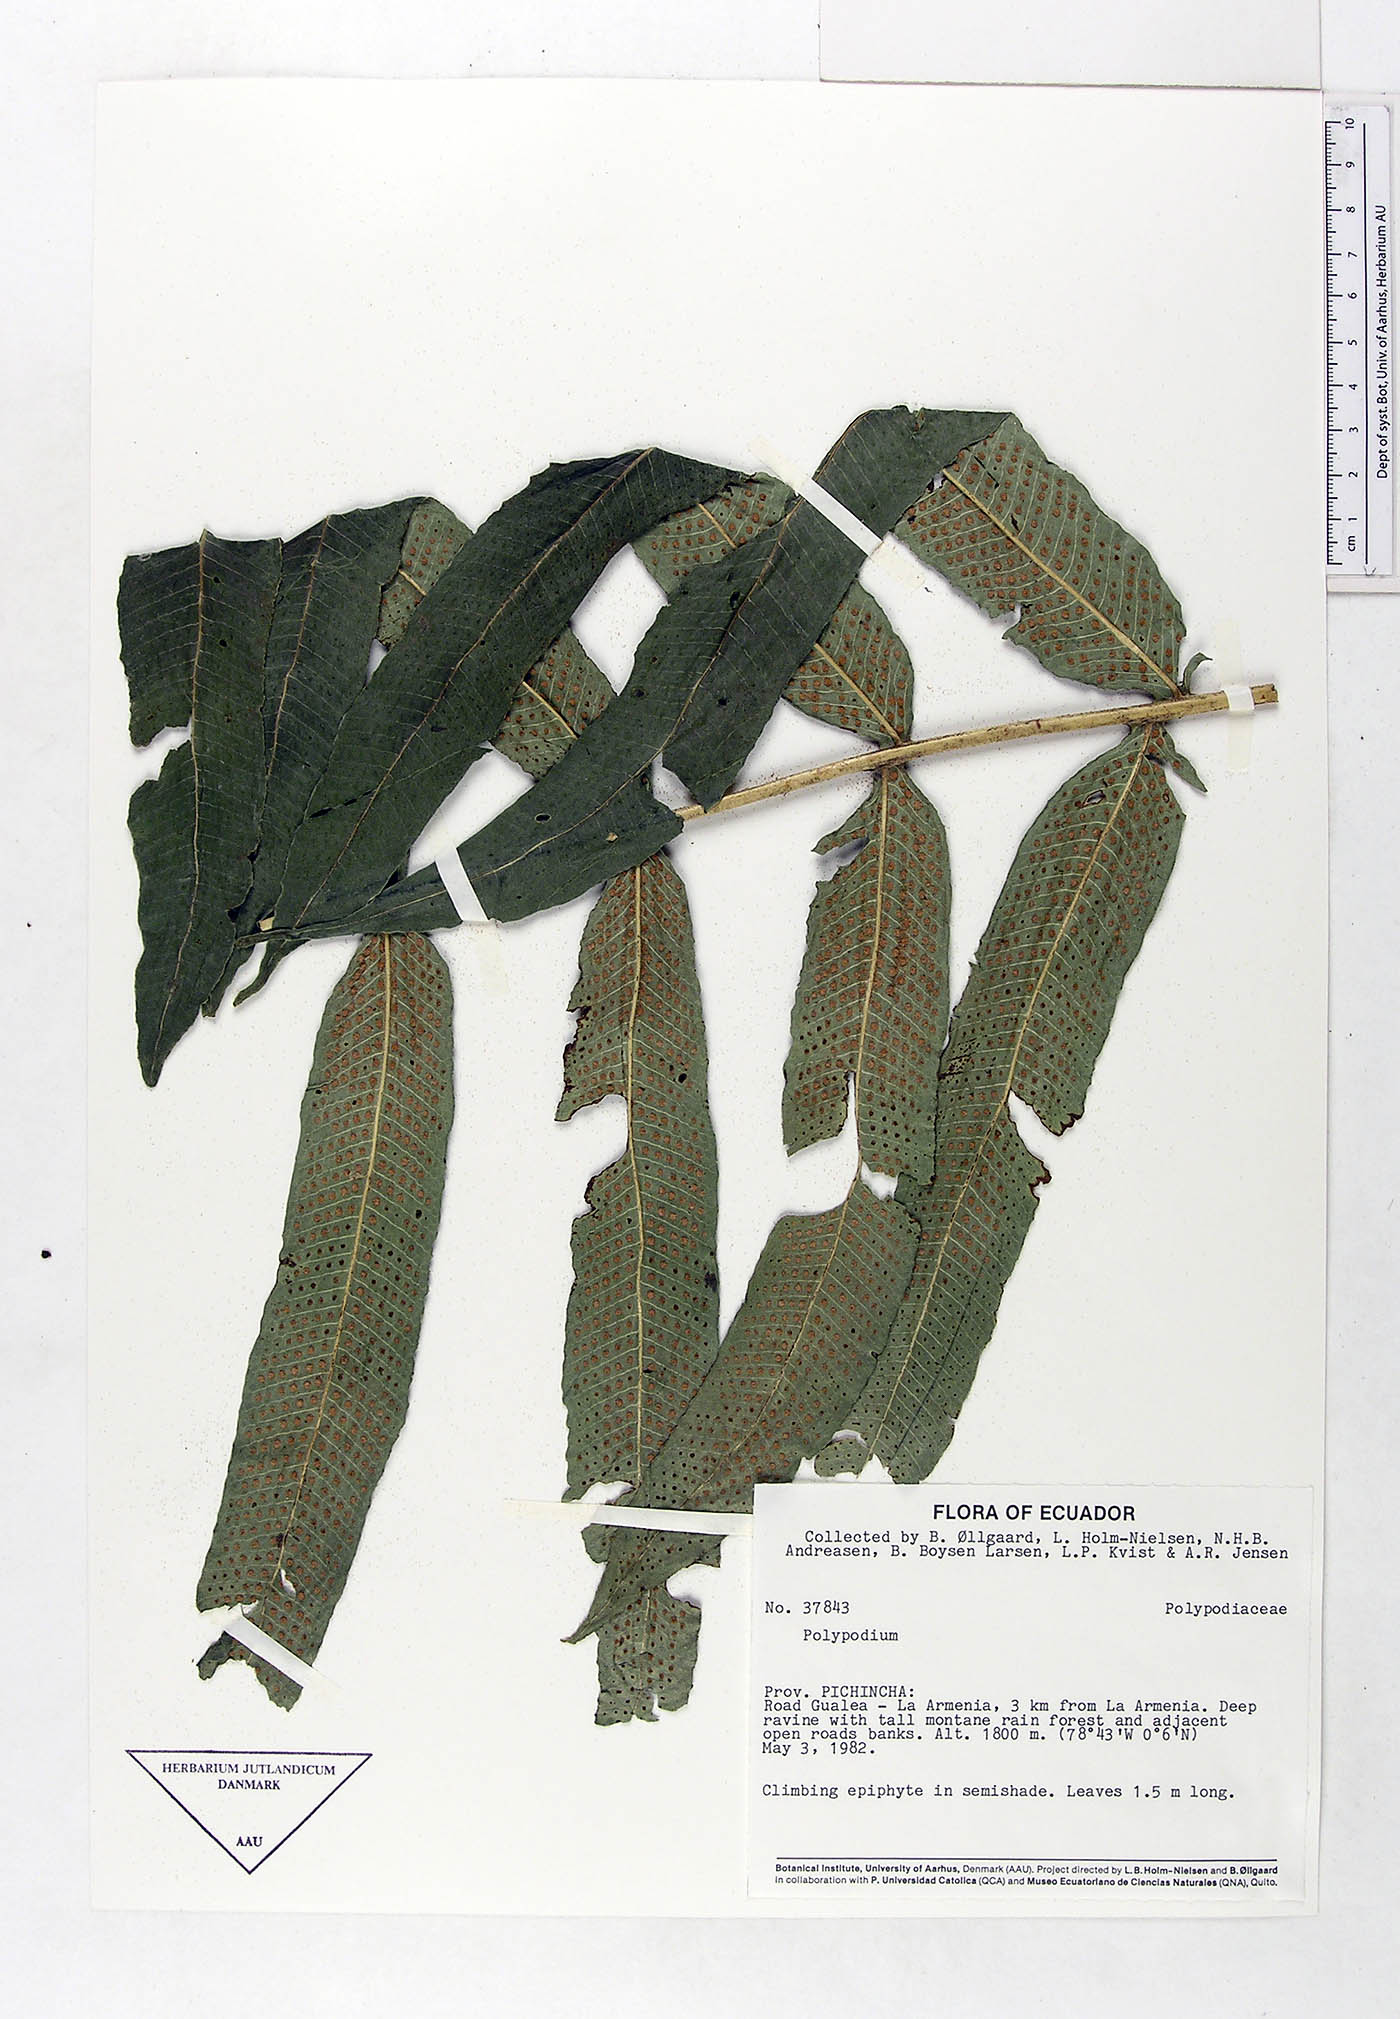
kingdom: Plantae
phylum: Tracheophyta
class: Polypodiopsida
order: Polypodiales
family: Polypodiaceae
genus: Serpocaulon
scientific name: Serpocaulon adnatum
